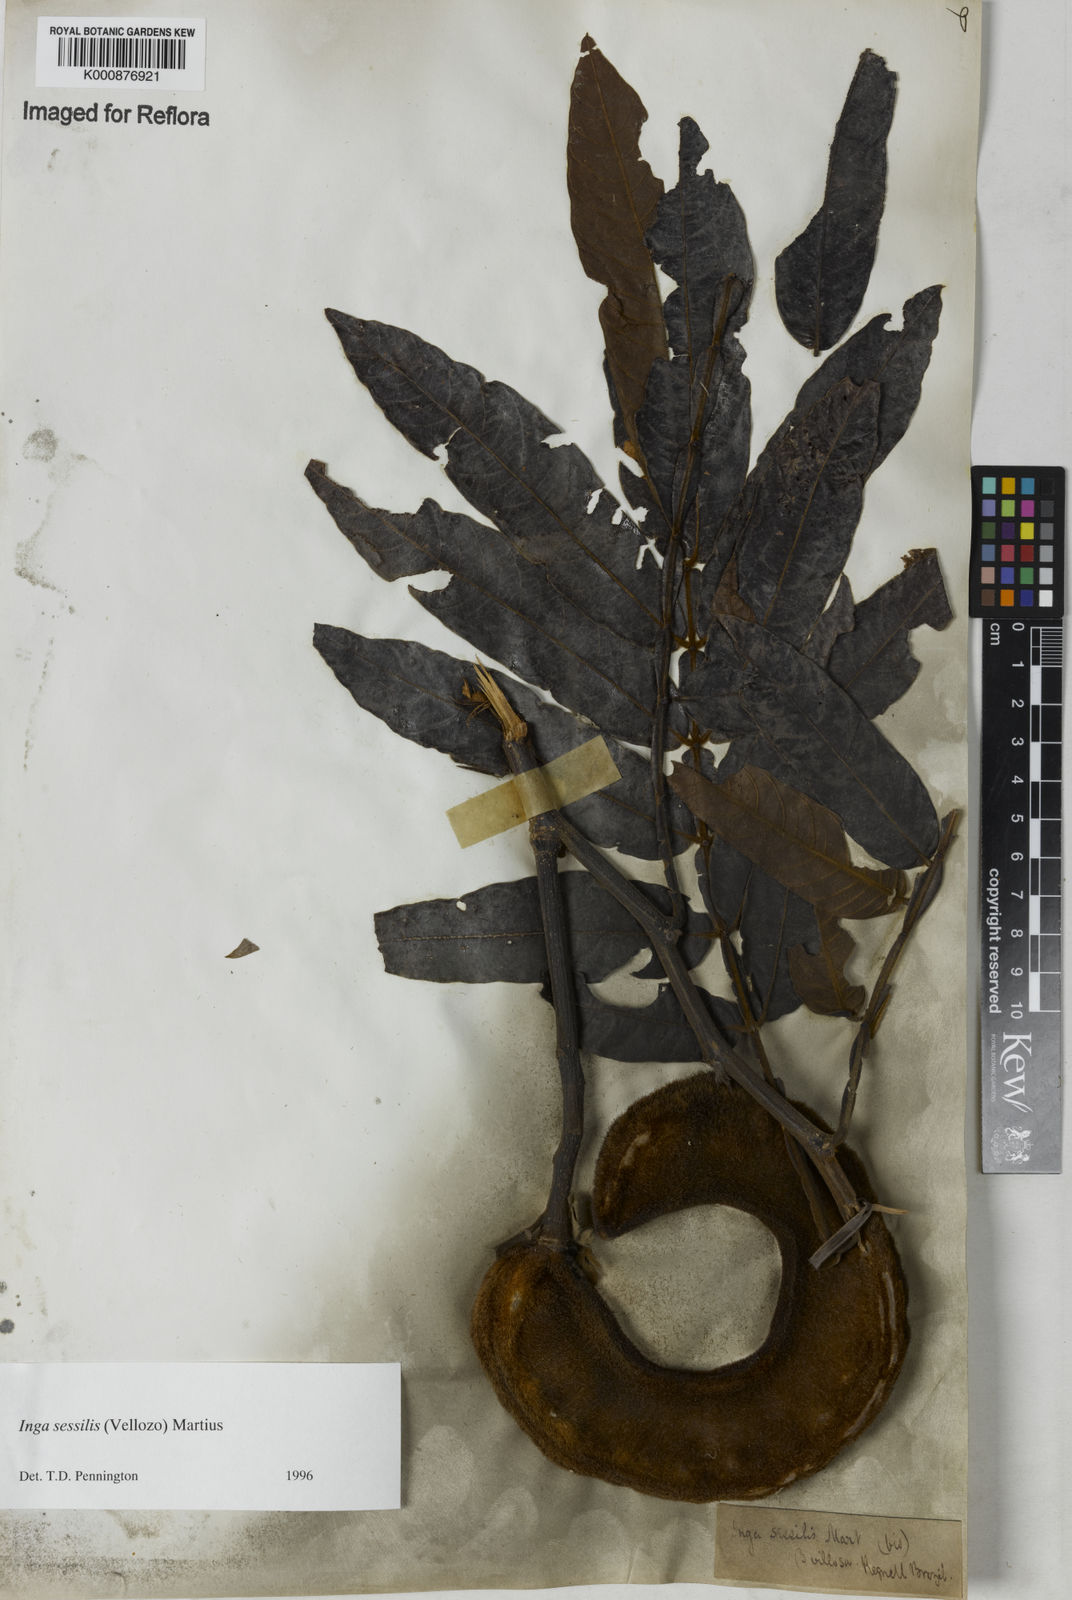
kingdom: Plantae
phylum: Tracheophyta
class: Magnoliopsida
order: Fabales
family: Fabaceae
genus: Inga
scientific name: Inga sessilis
